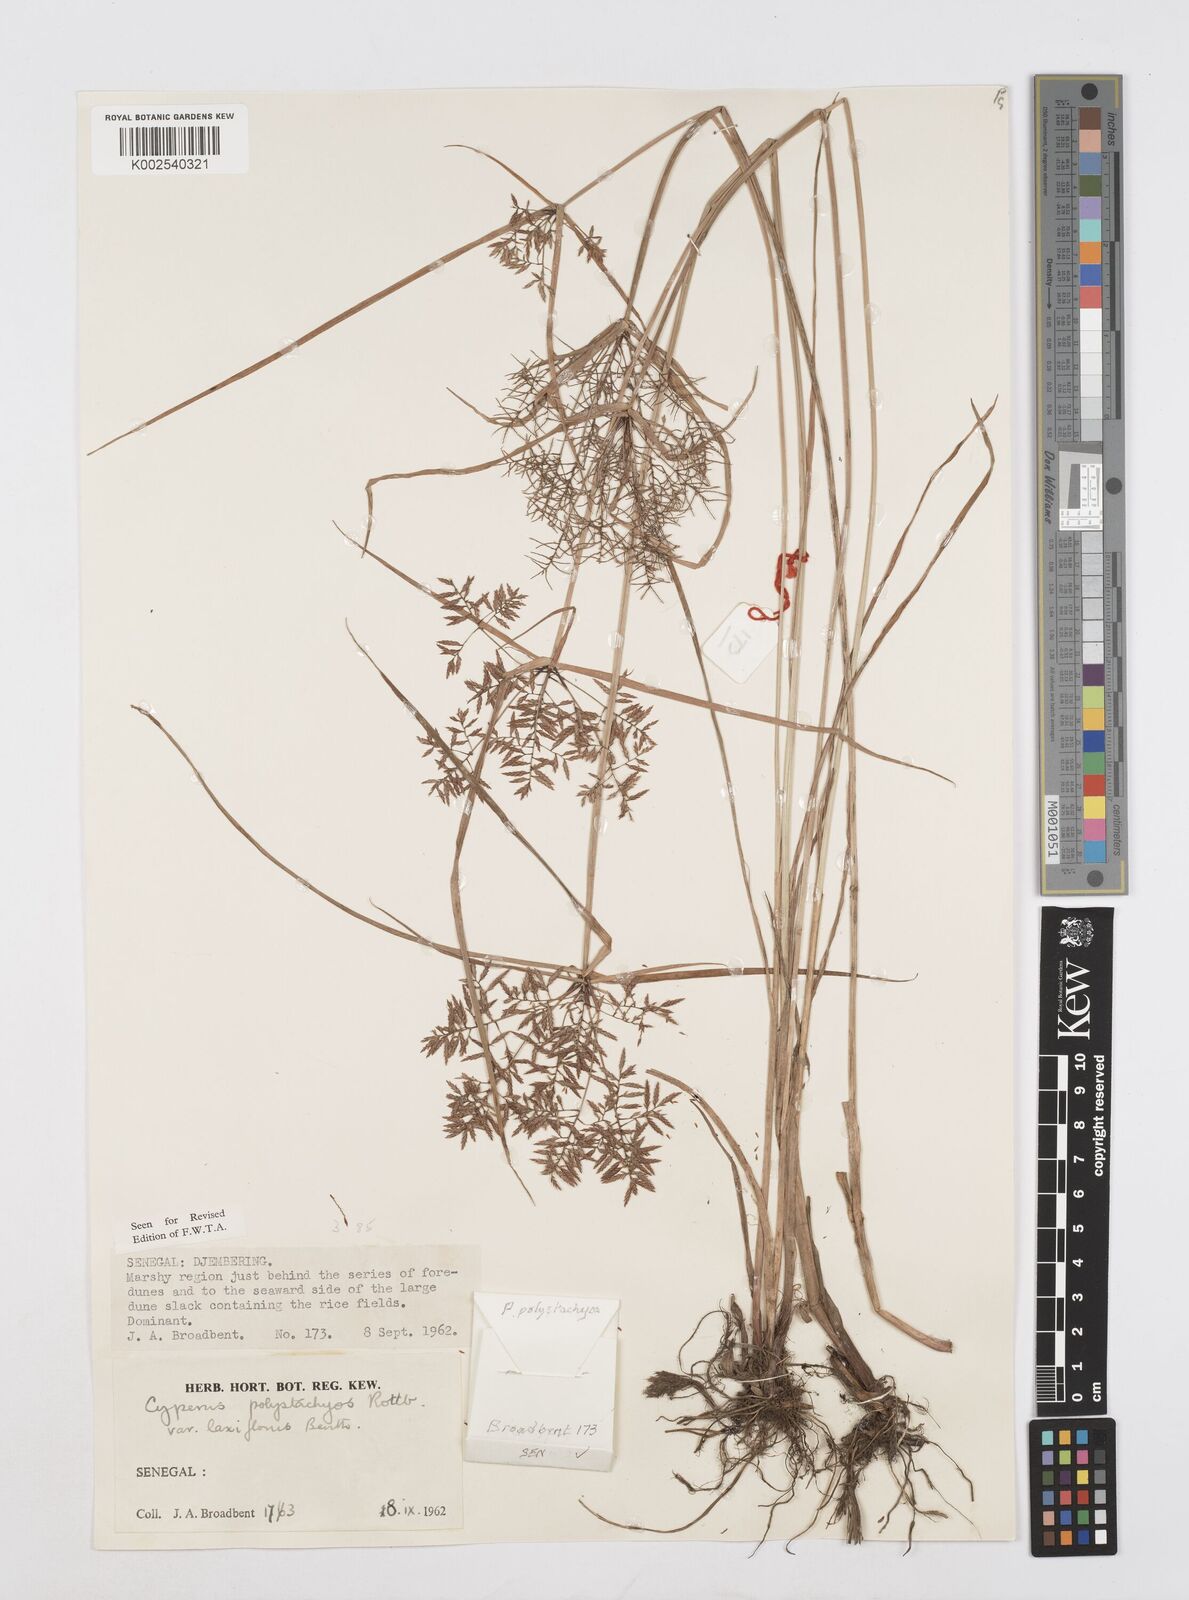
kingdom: Plantae
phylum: Tracheophyta
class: Liliopsida
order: Poales
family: Cyperaceae
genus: Cyperus
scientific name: Cyperus polystachyos
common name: Bunchy flat sedge
